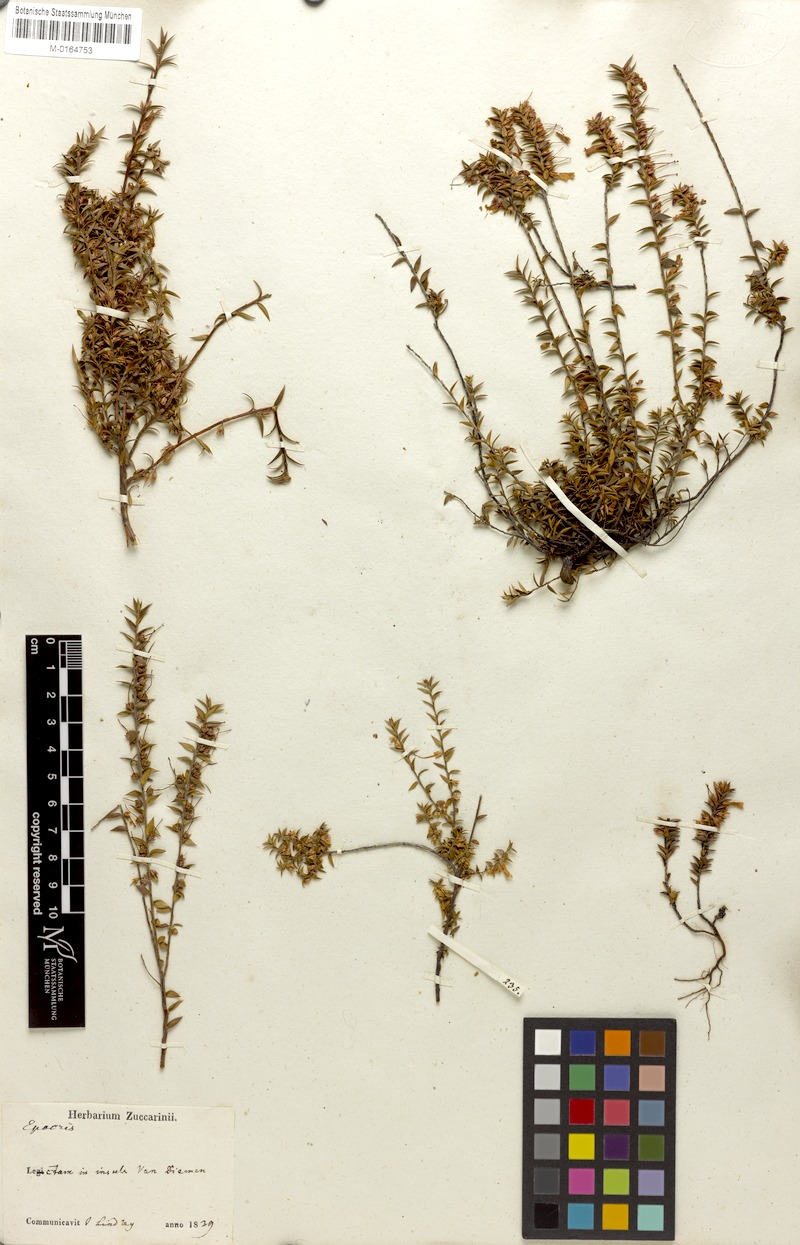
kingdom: Plantae
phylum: Tracheophyta
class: Magnoliopsida
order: Ericales
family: Ericaceae
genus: Epacris
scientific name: Epacris impressa
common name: Common-heath
